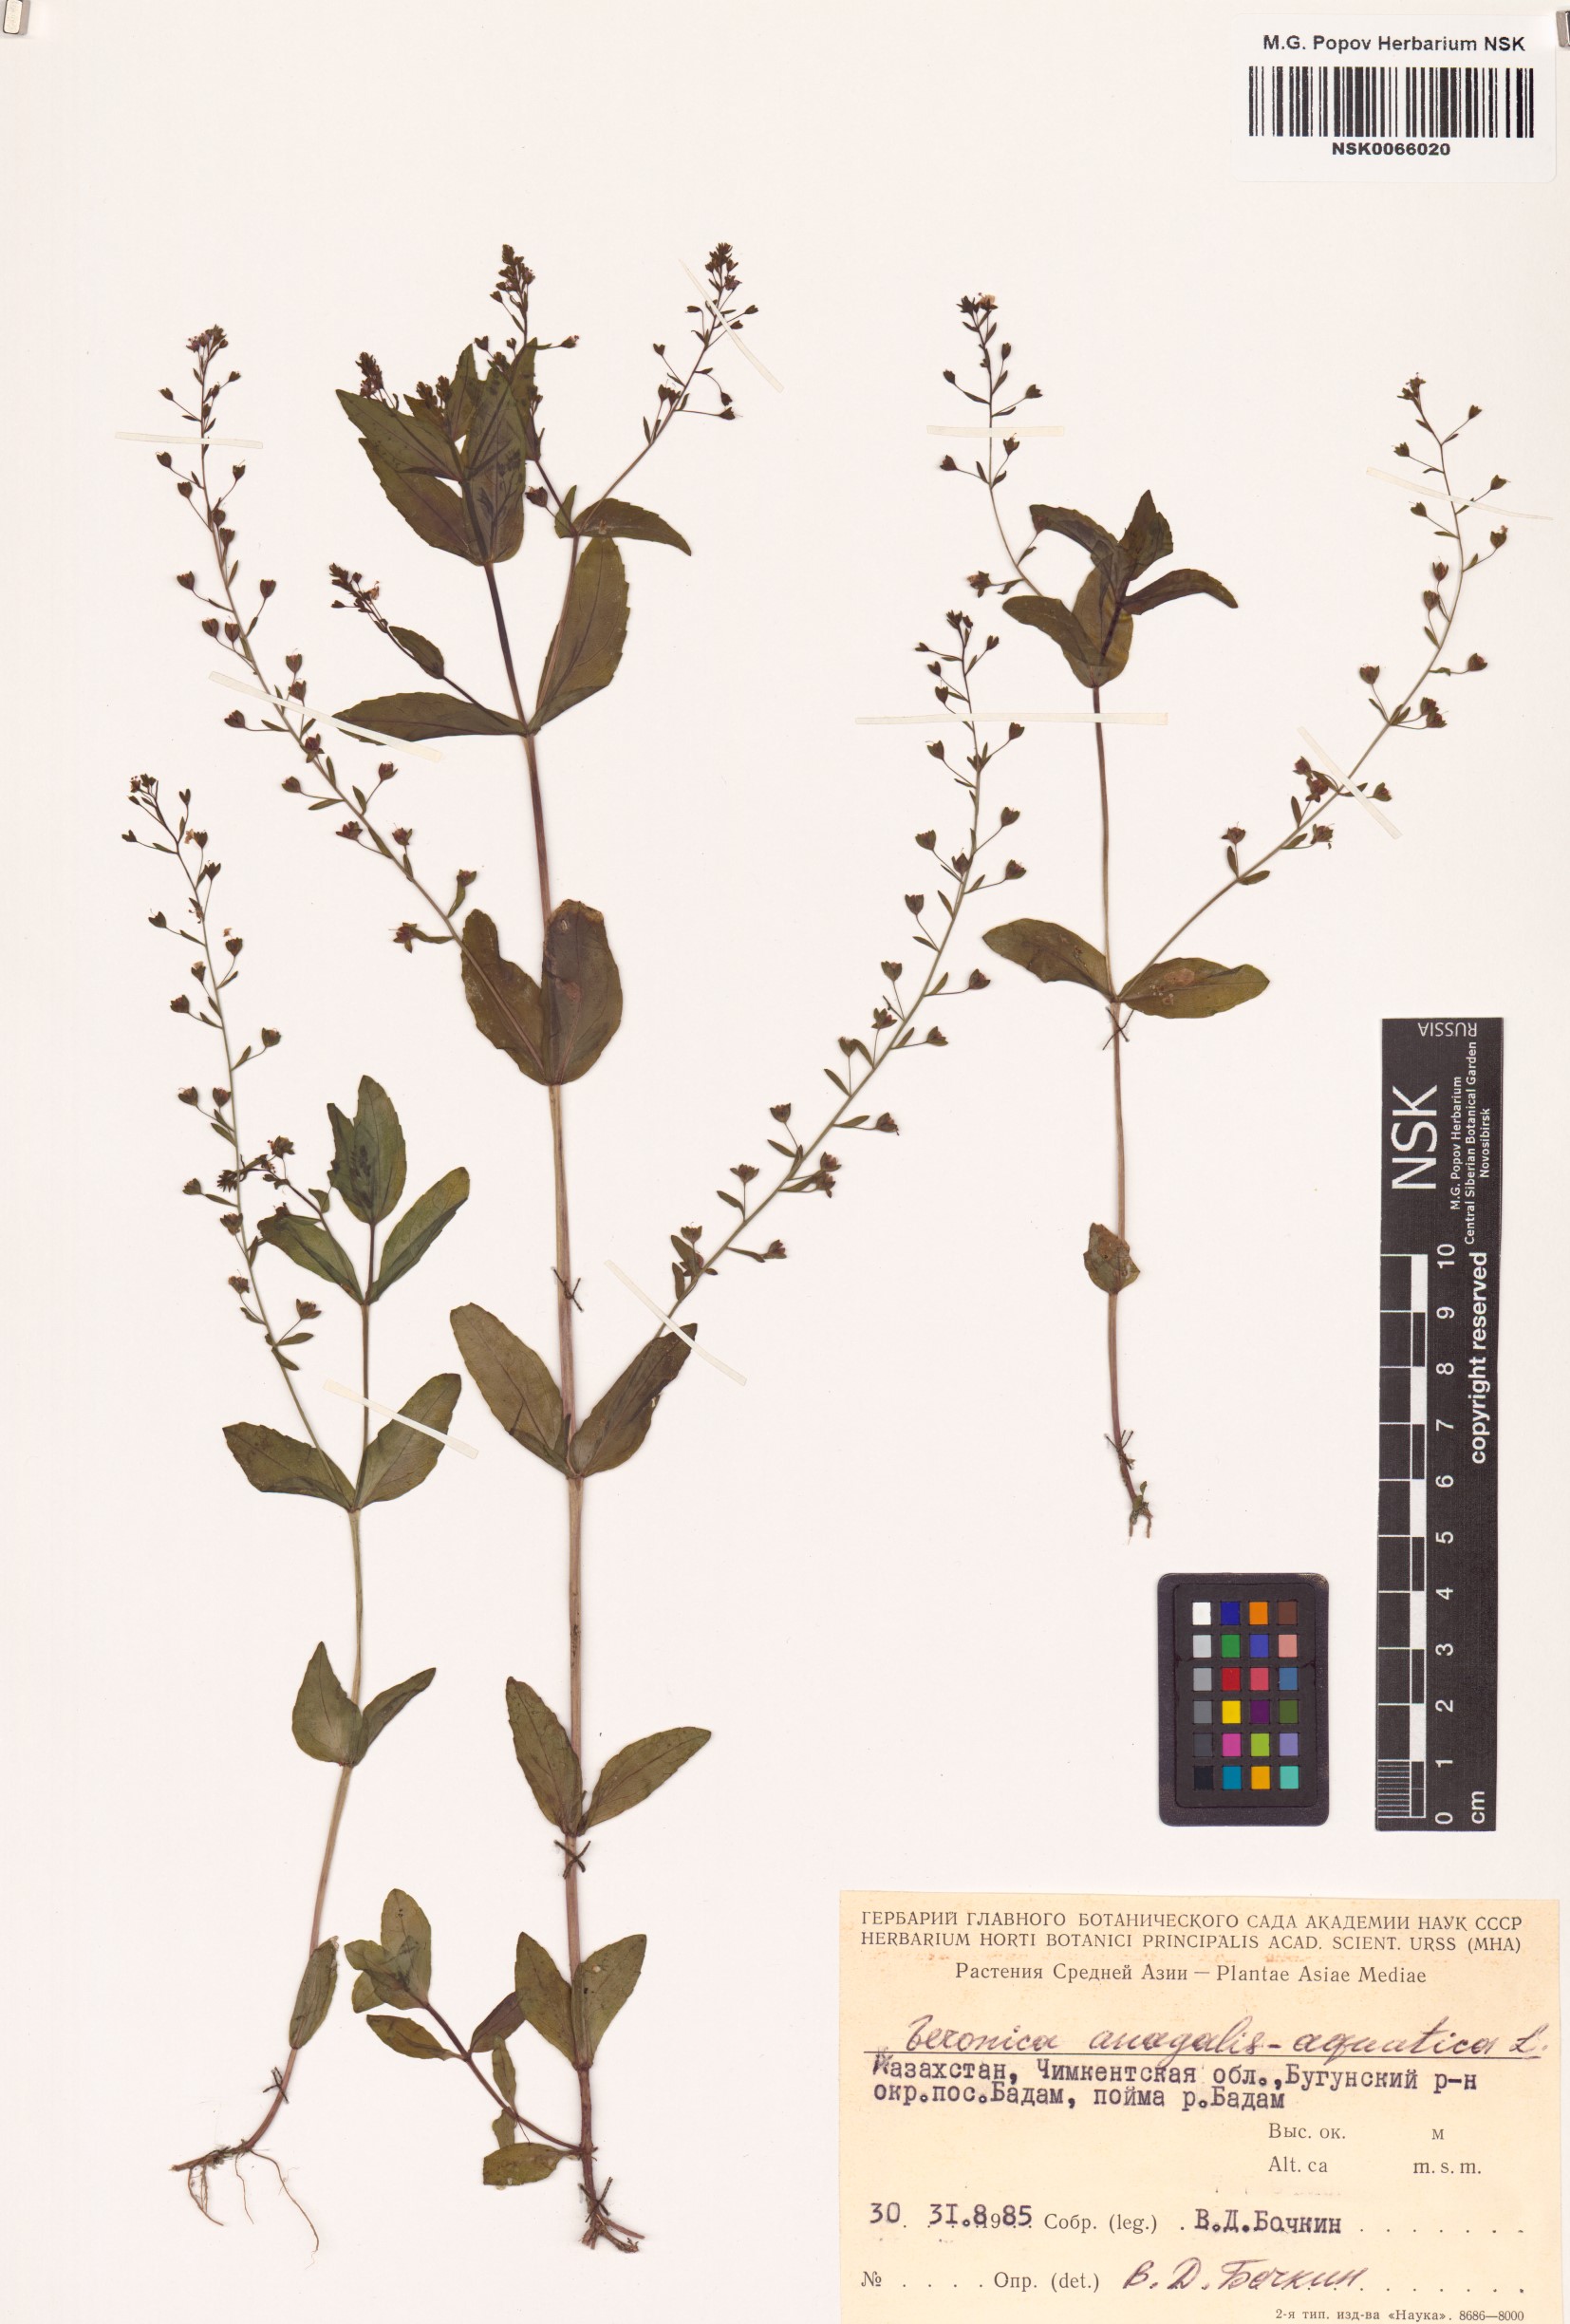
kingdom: Plantae
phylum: Tracheophyta
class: Magnoliopsida
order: Lamiales
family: Plantaginaceae
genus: Veronica
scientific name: Veronica anagallis-aquatica
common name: Water speedwell
